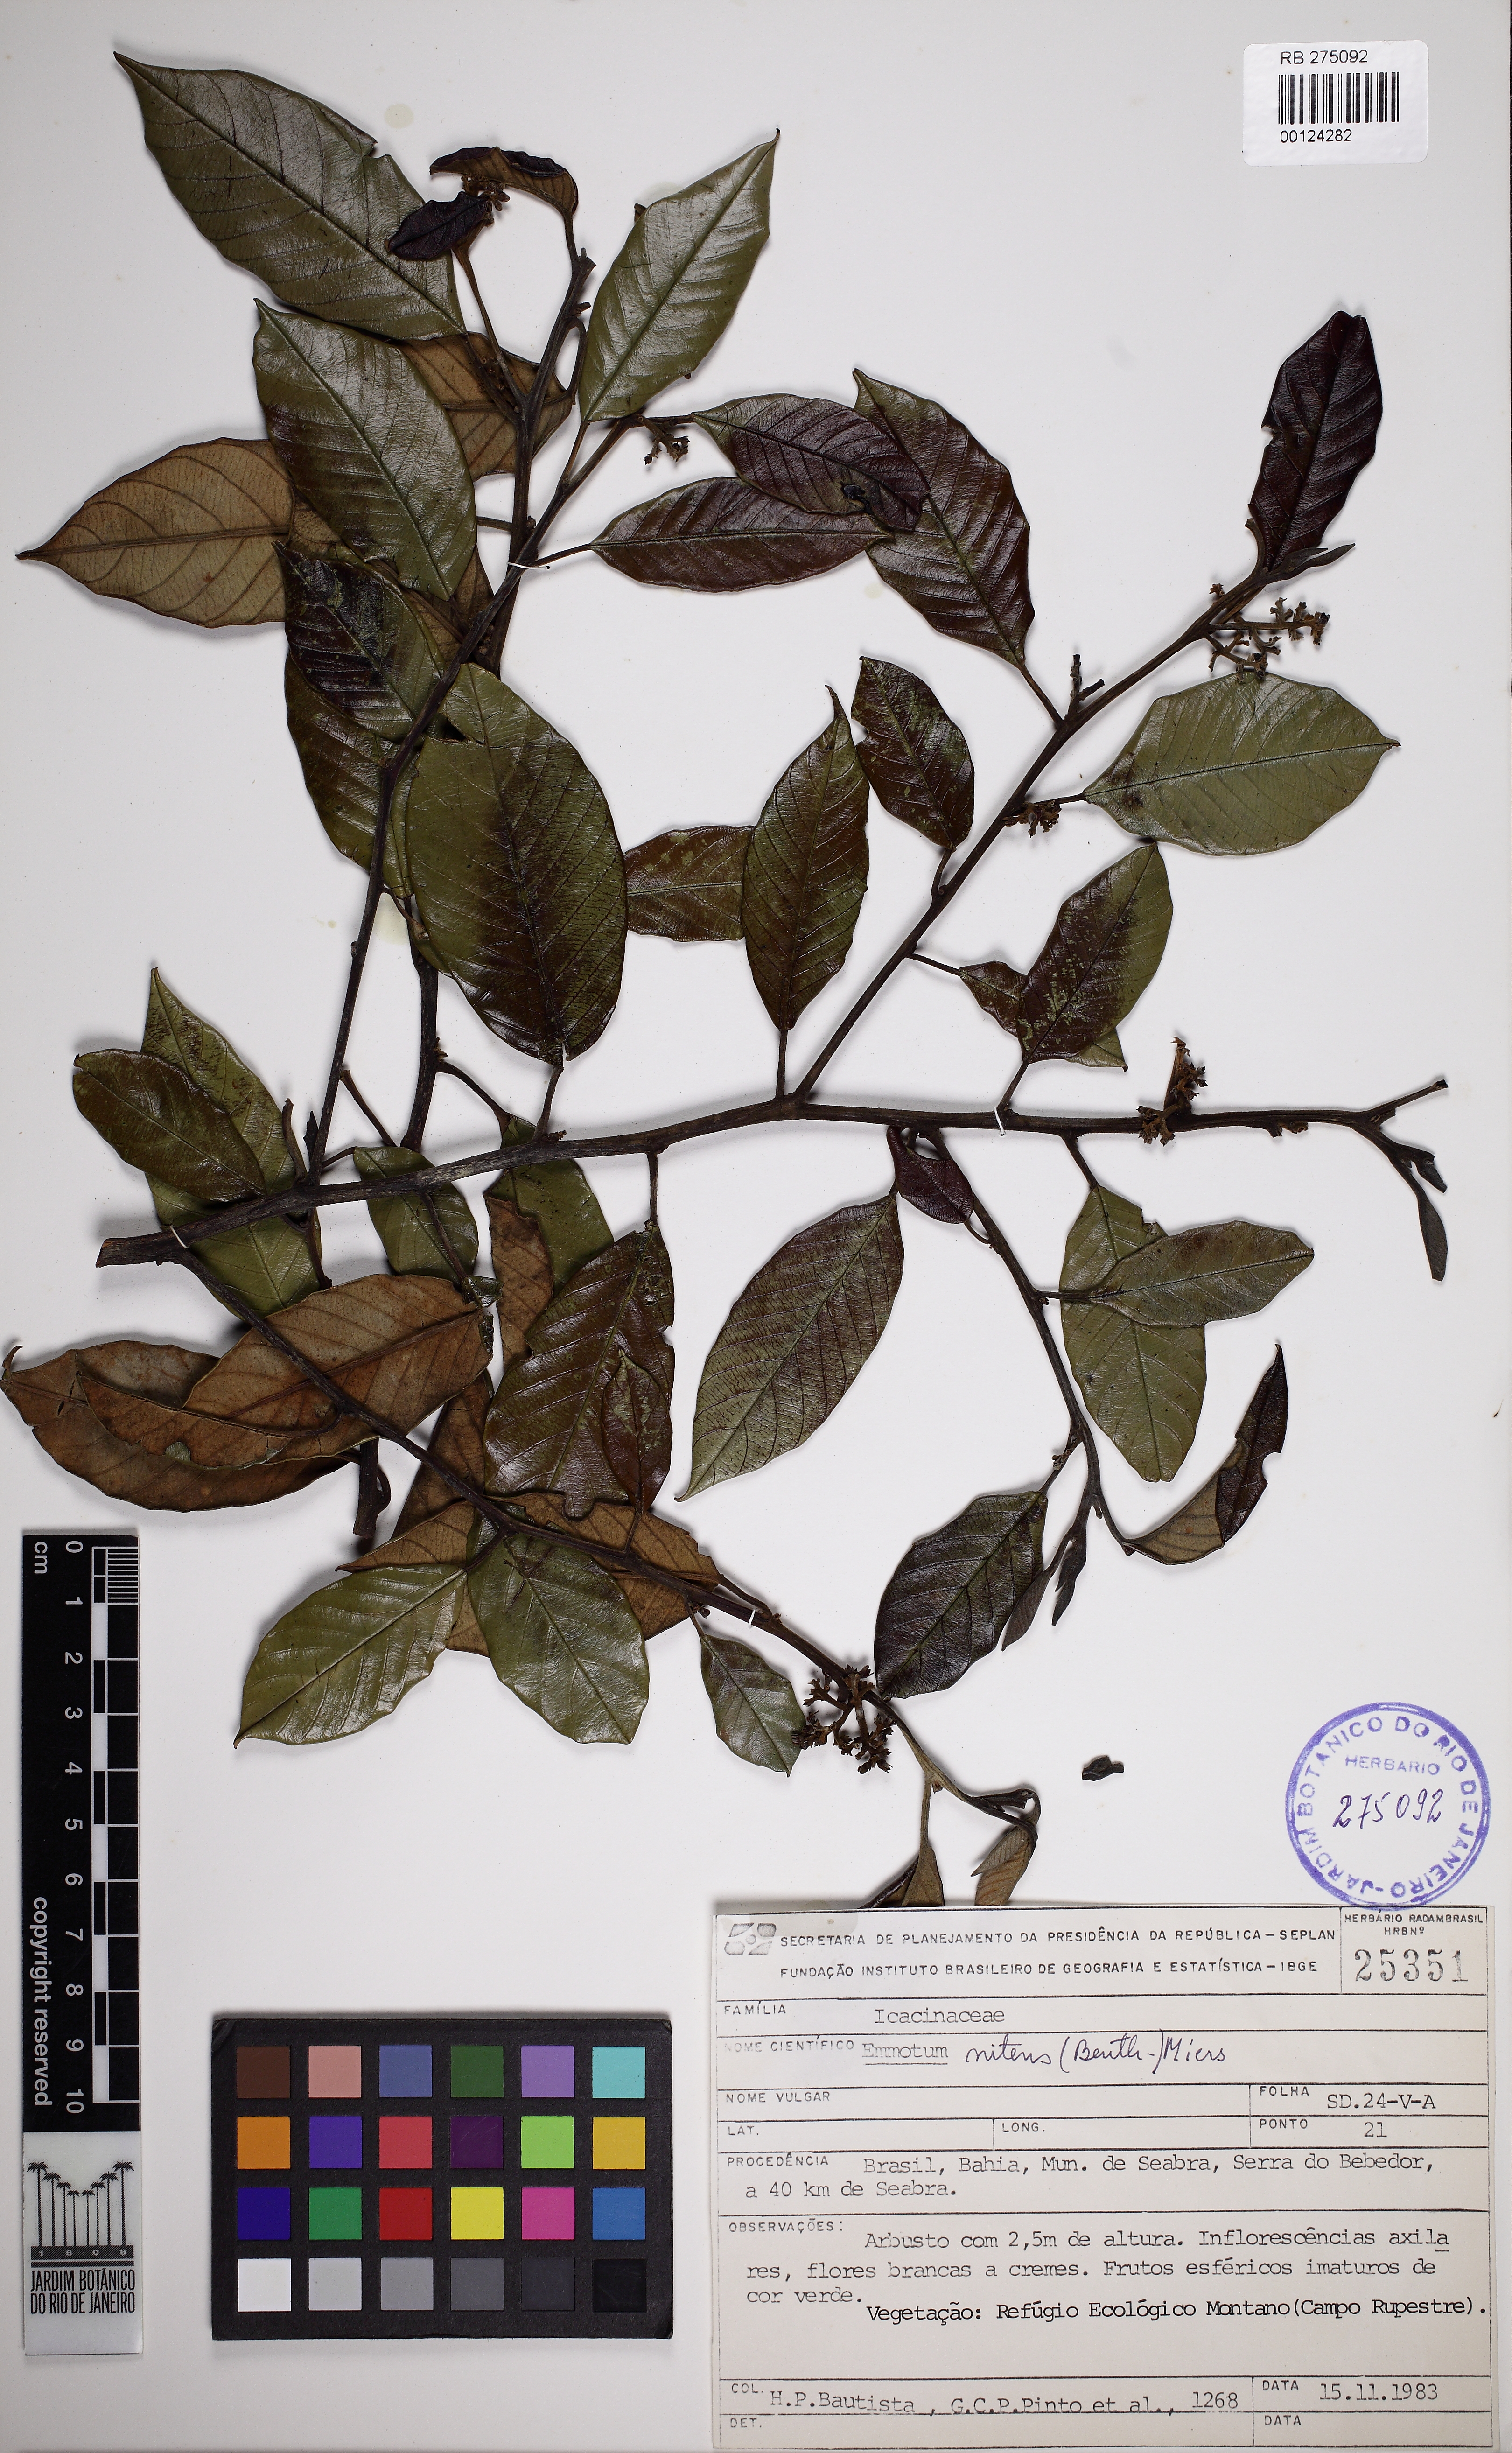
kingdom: Plantae
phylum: Tracheophyta
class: Magnoliopsida
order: Metteniusales
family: Metteniusaceae
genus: Emmotum
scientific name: Emmotum nitens
